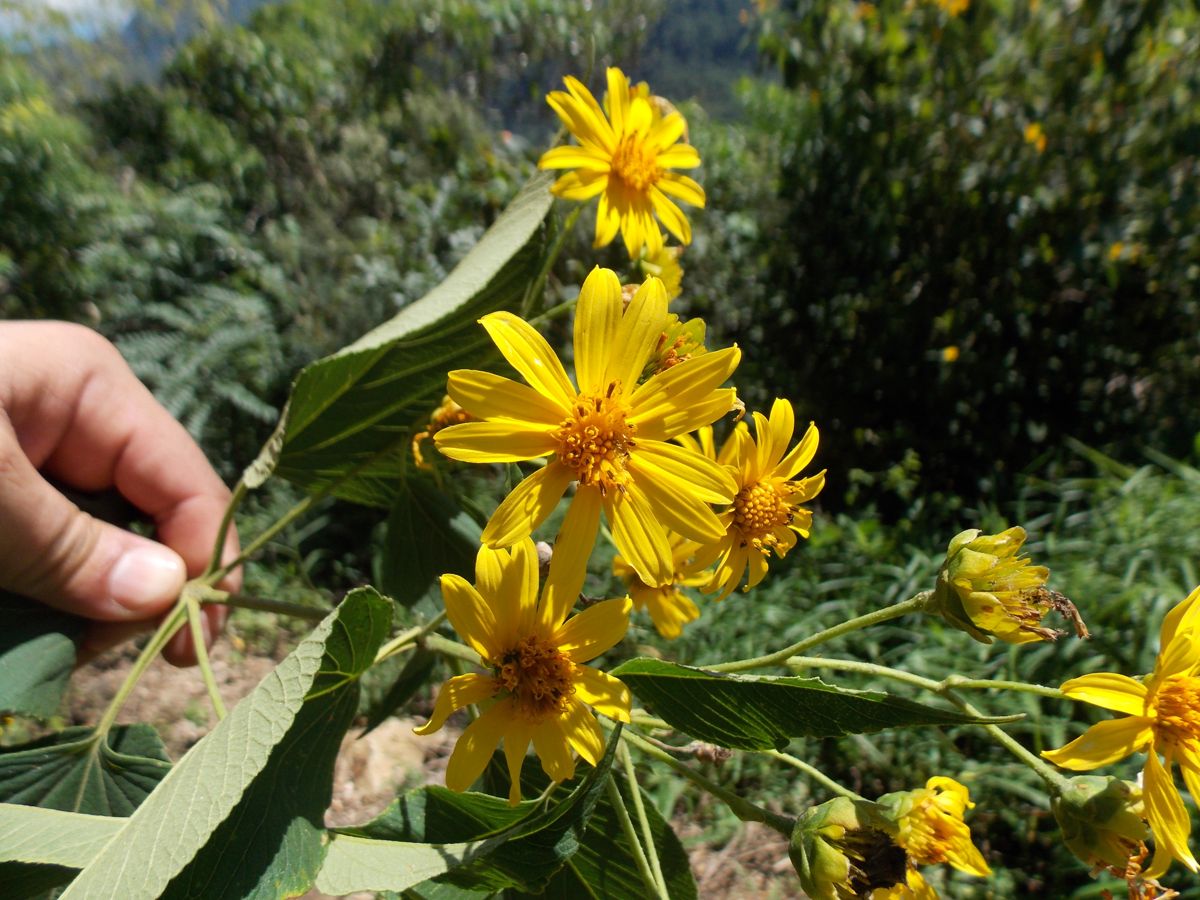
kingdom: Plantae
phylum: Tracheophyta
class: Magnoliopsida
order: Asterales
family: Asteraceae
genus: Perymenium
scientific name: Perymenium grande
